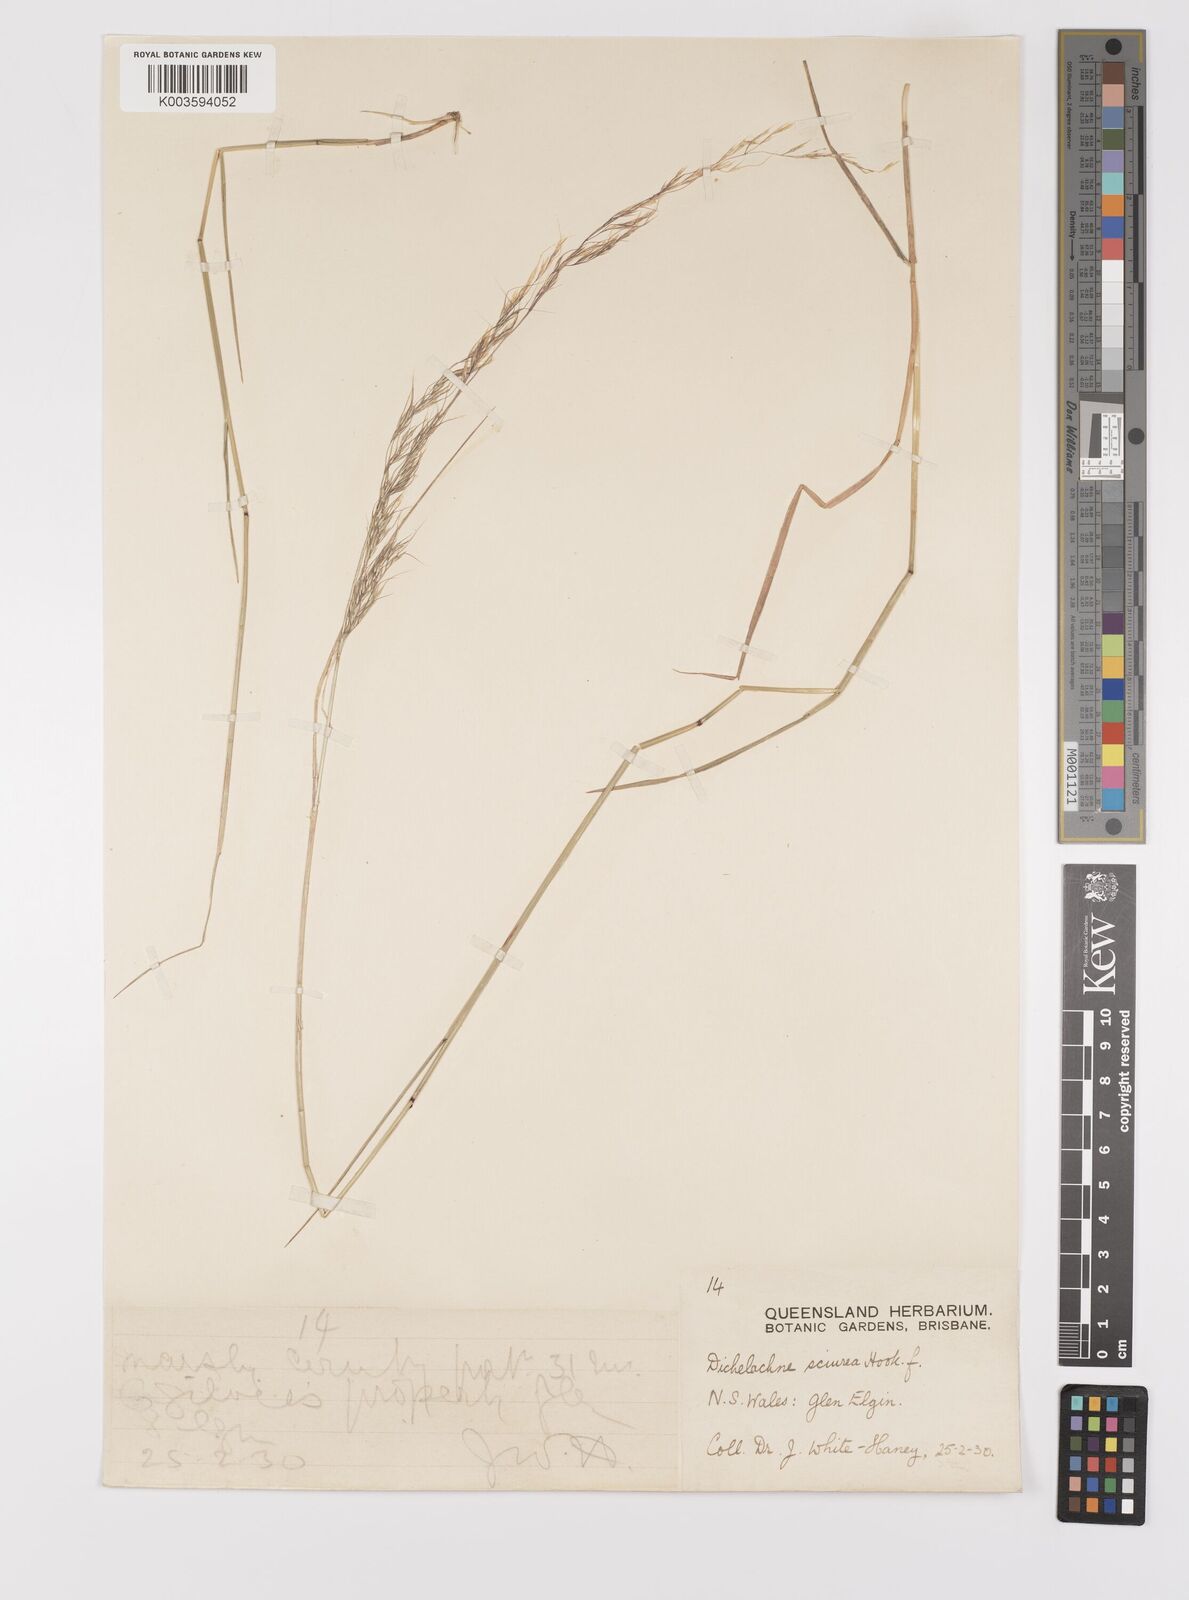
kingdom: Plantae
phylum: Tracheophyta
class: Liliopsida
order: Poales
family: Poaceae
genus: Dichelachne
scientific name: Dichelachne rara
